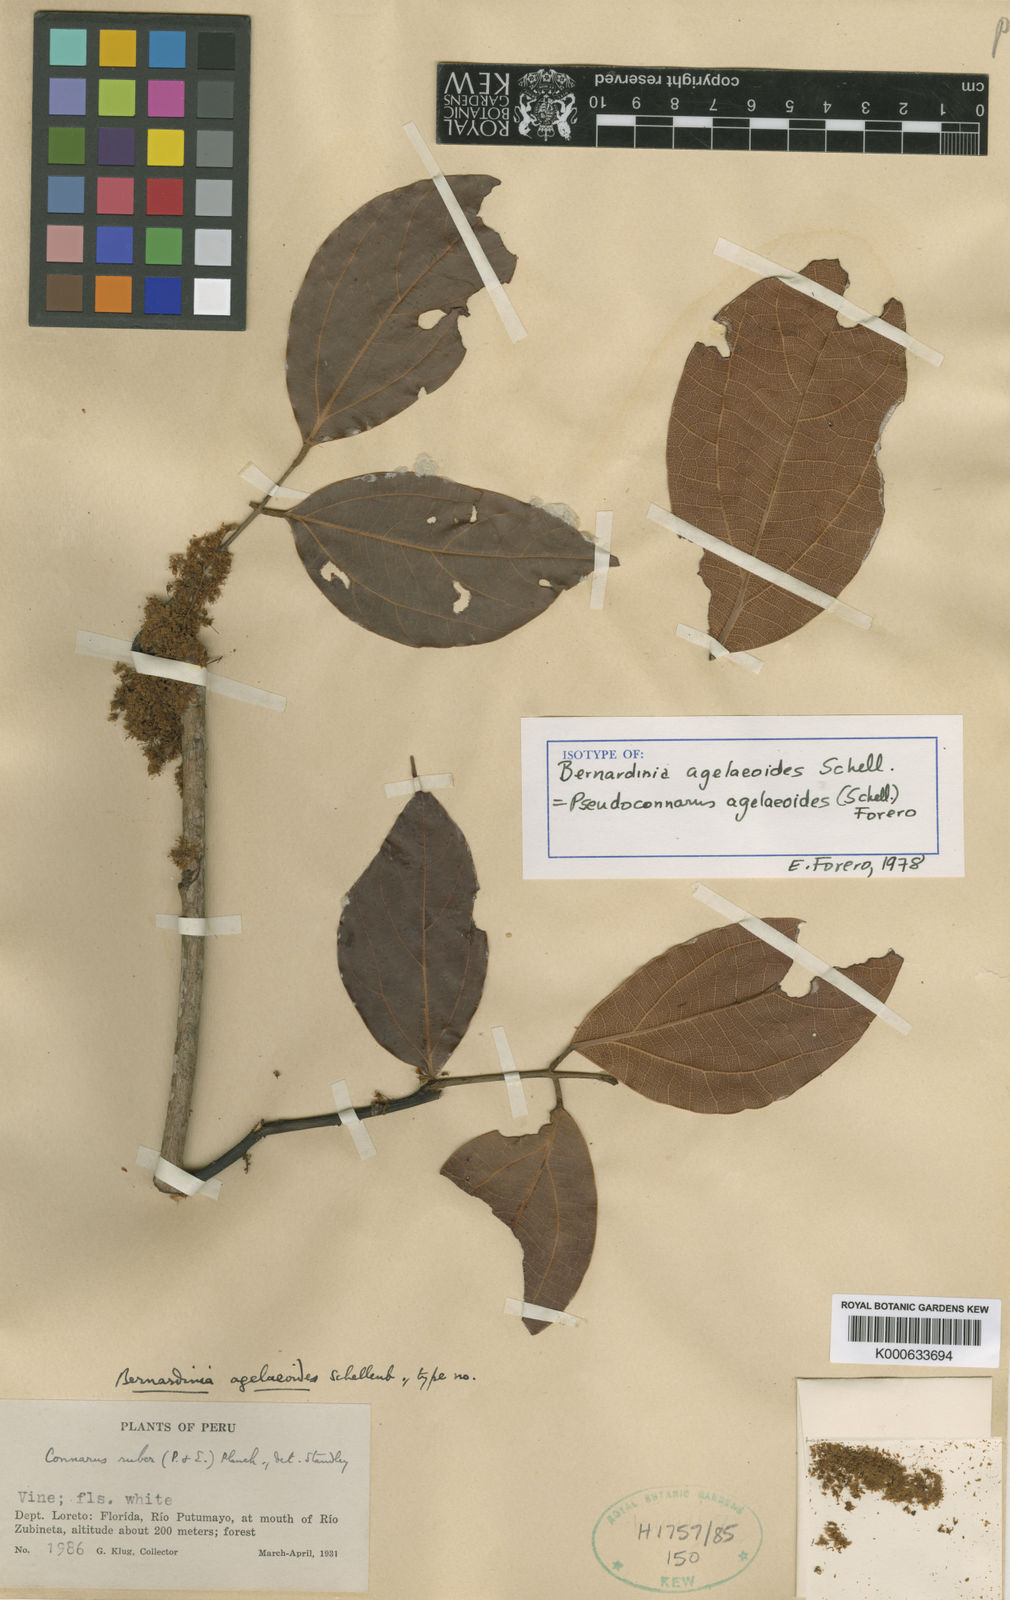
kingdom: Plantae
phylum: Tracheophyta
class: Magnoliopsida
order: Oxalidales
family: Connaraceae
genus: Pseudoconnarus
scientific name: Pseudoconnarus agelaeoides
